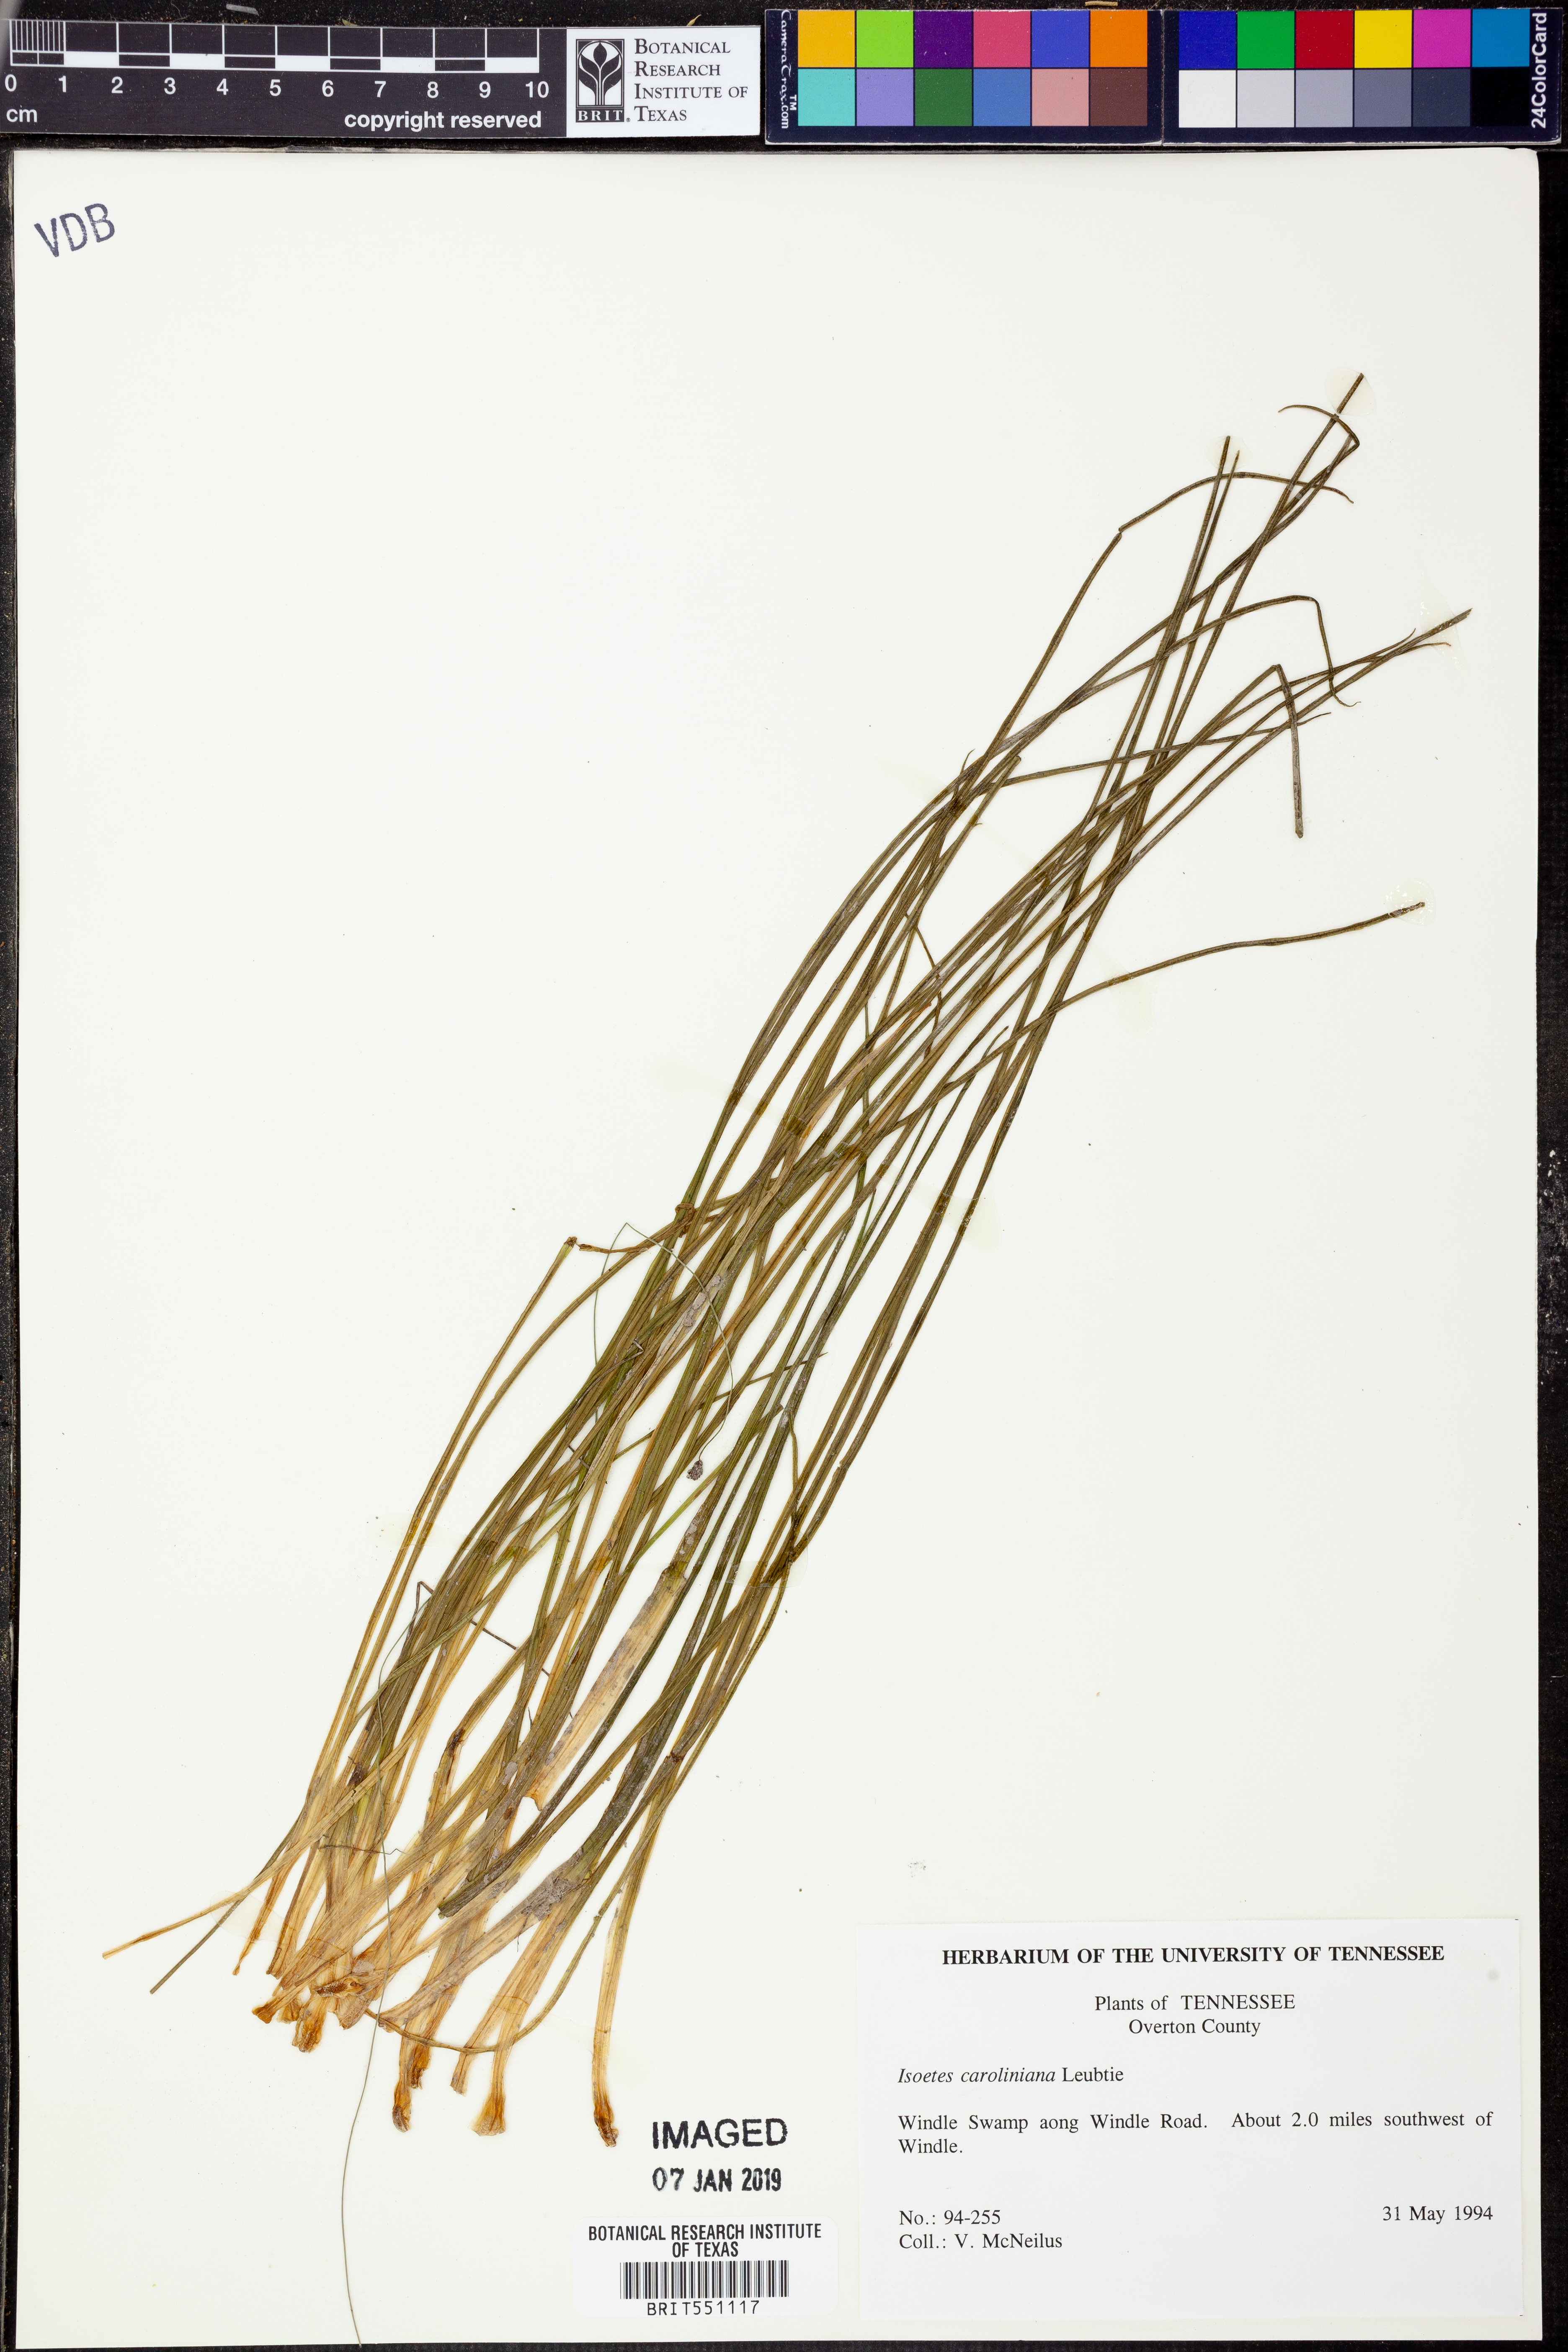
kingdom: Plantae
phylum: Tracheophyta
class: Lycopodiopsida
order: Isoetales
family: Isoetaceae
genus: Isoetes
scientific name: Isoetes caroliniana
